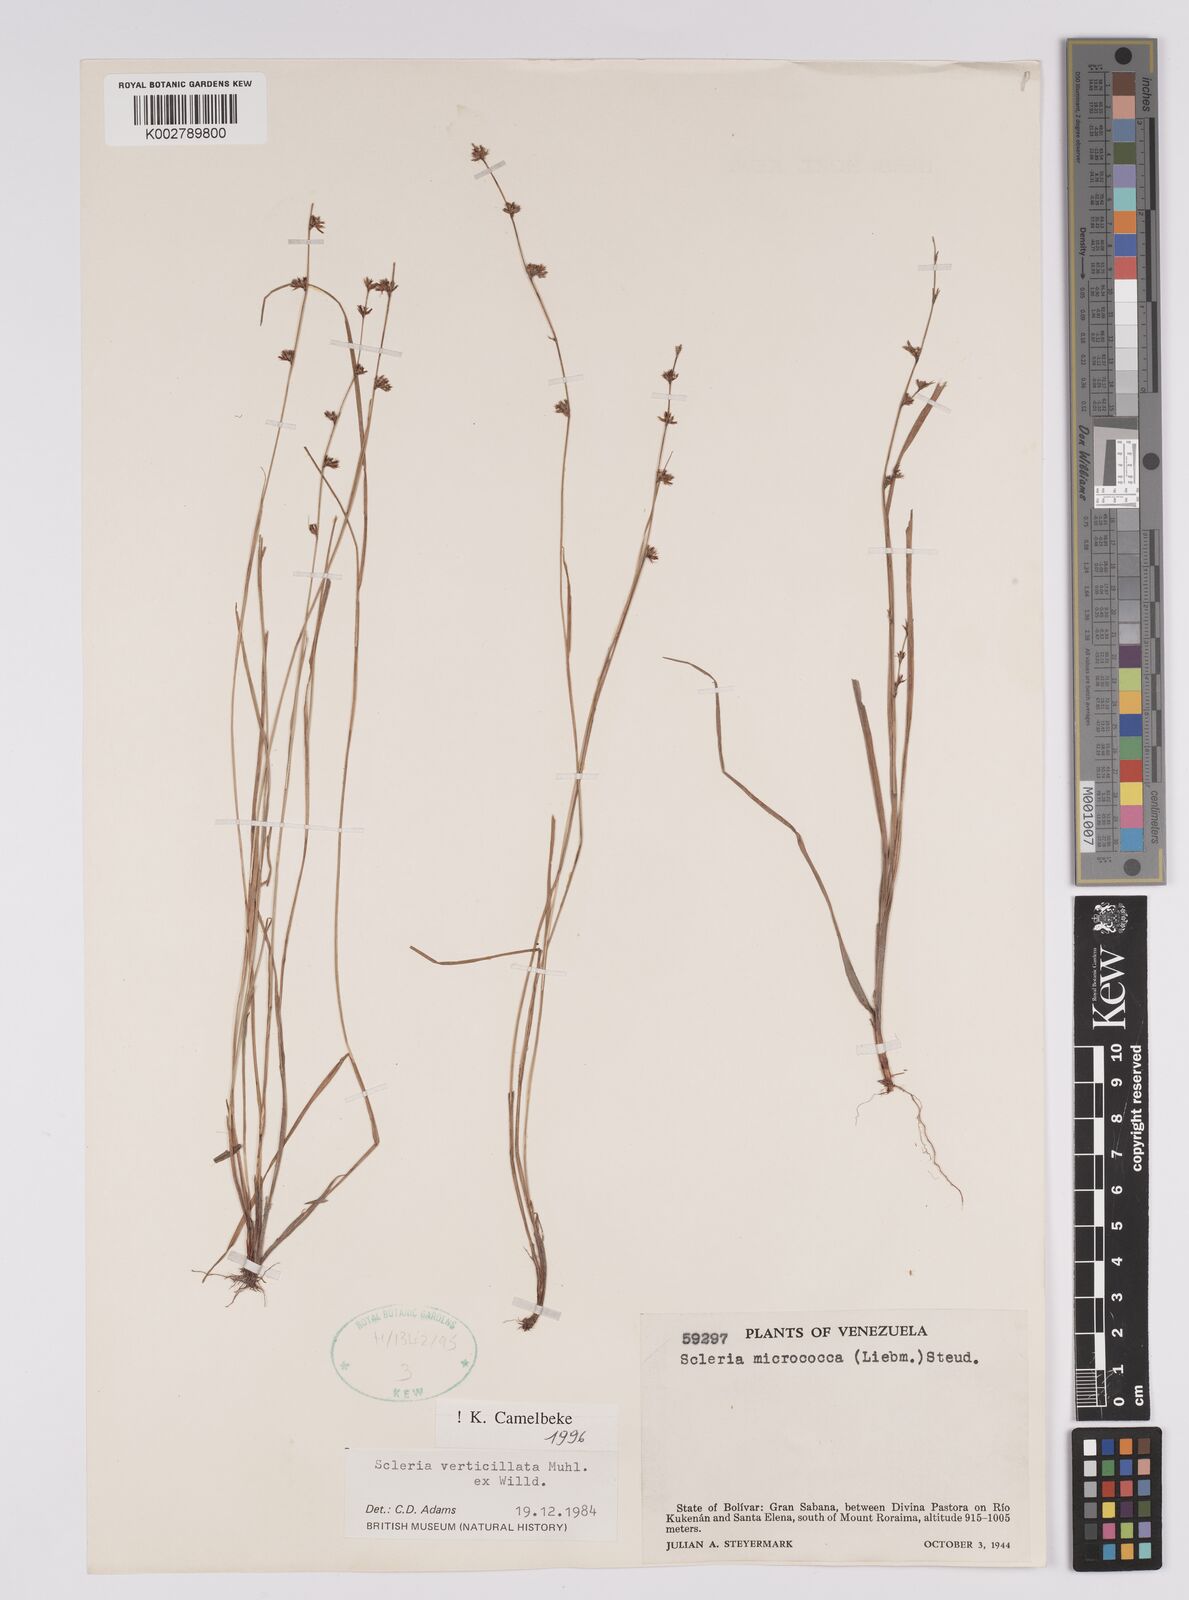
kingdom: Plantae
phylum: Tracheophyta
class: Liliopsida
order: Poales
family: Cyperaceae
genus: Scleria
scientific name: Scleria verticillata
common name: Low nutrush
